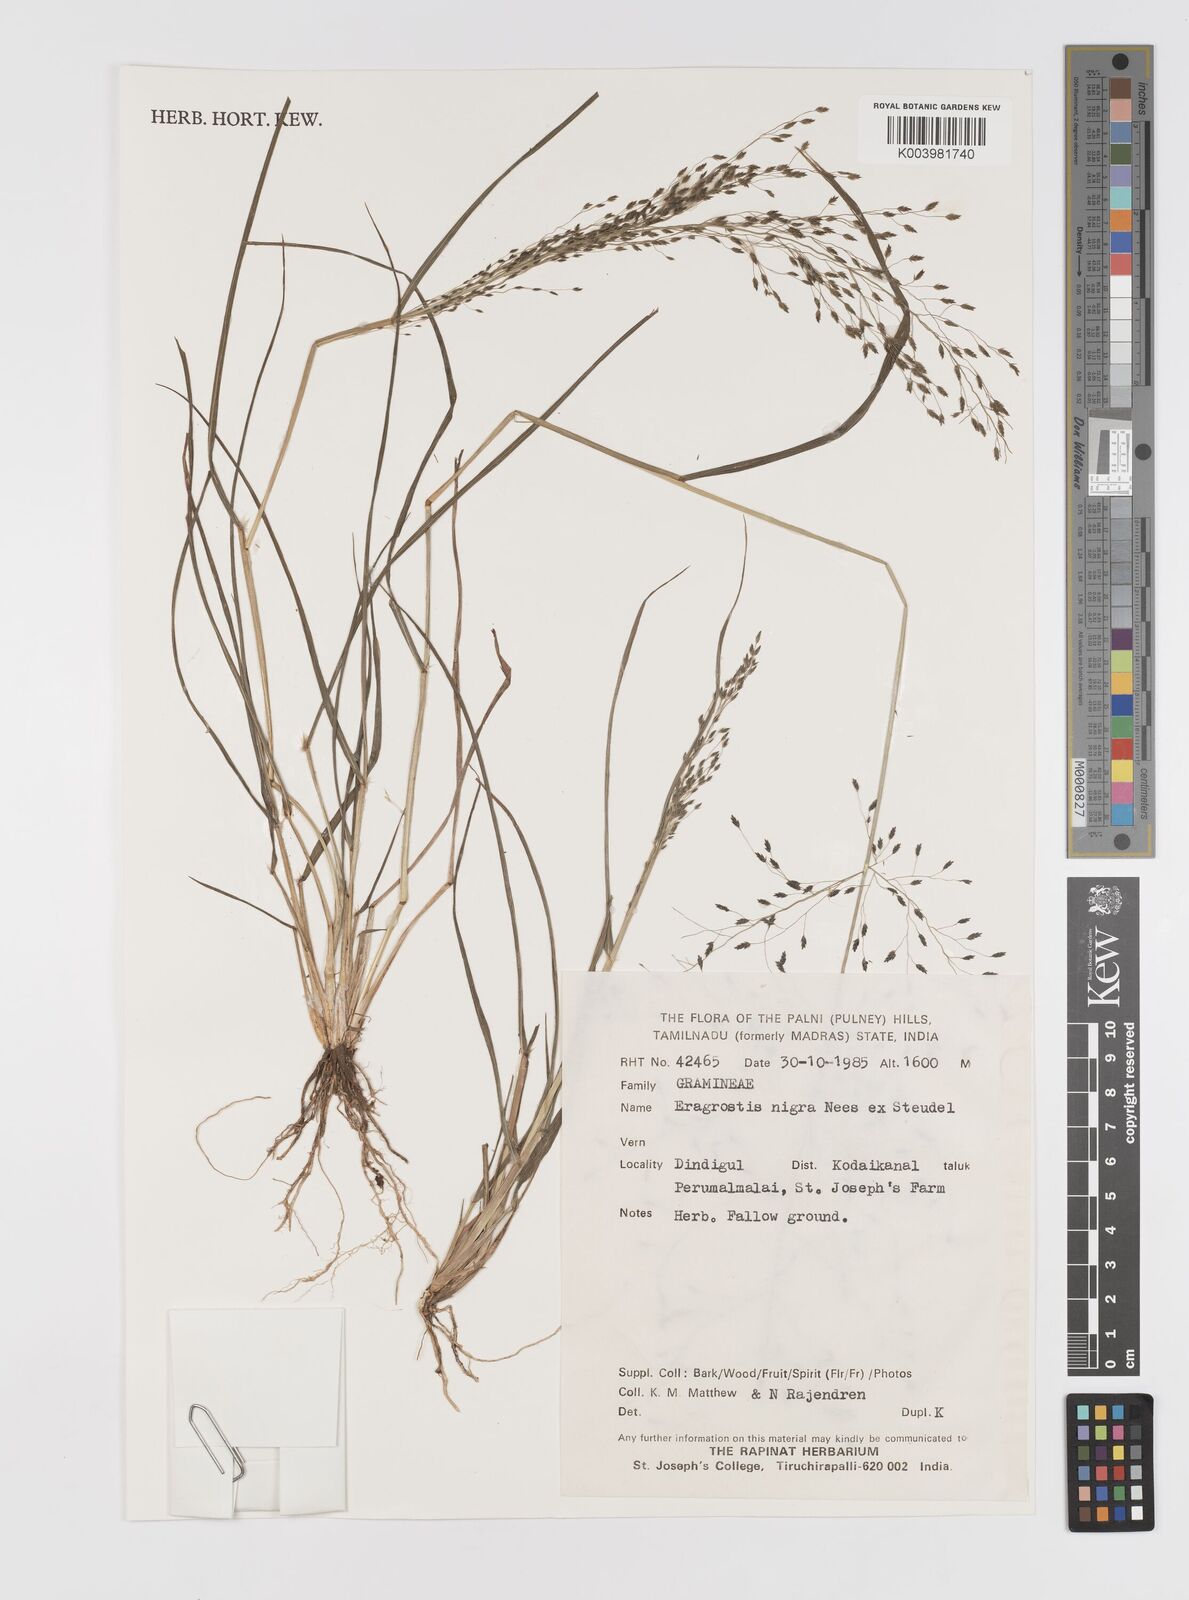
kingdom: Plantae
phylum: Tracheophyta
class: Liliopsida
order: Poales
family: Poaceae
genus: Eragrostis
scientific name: Eragrostis nigra
